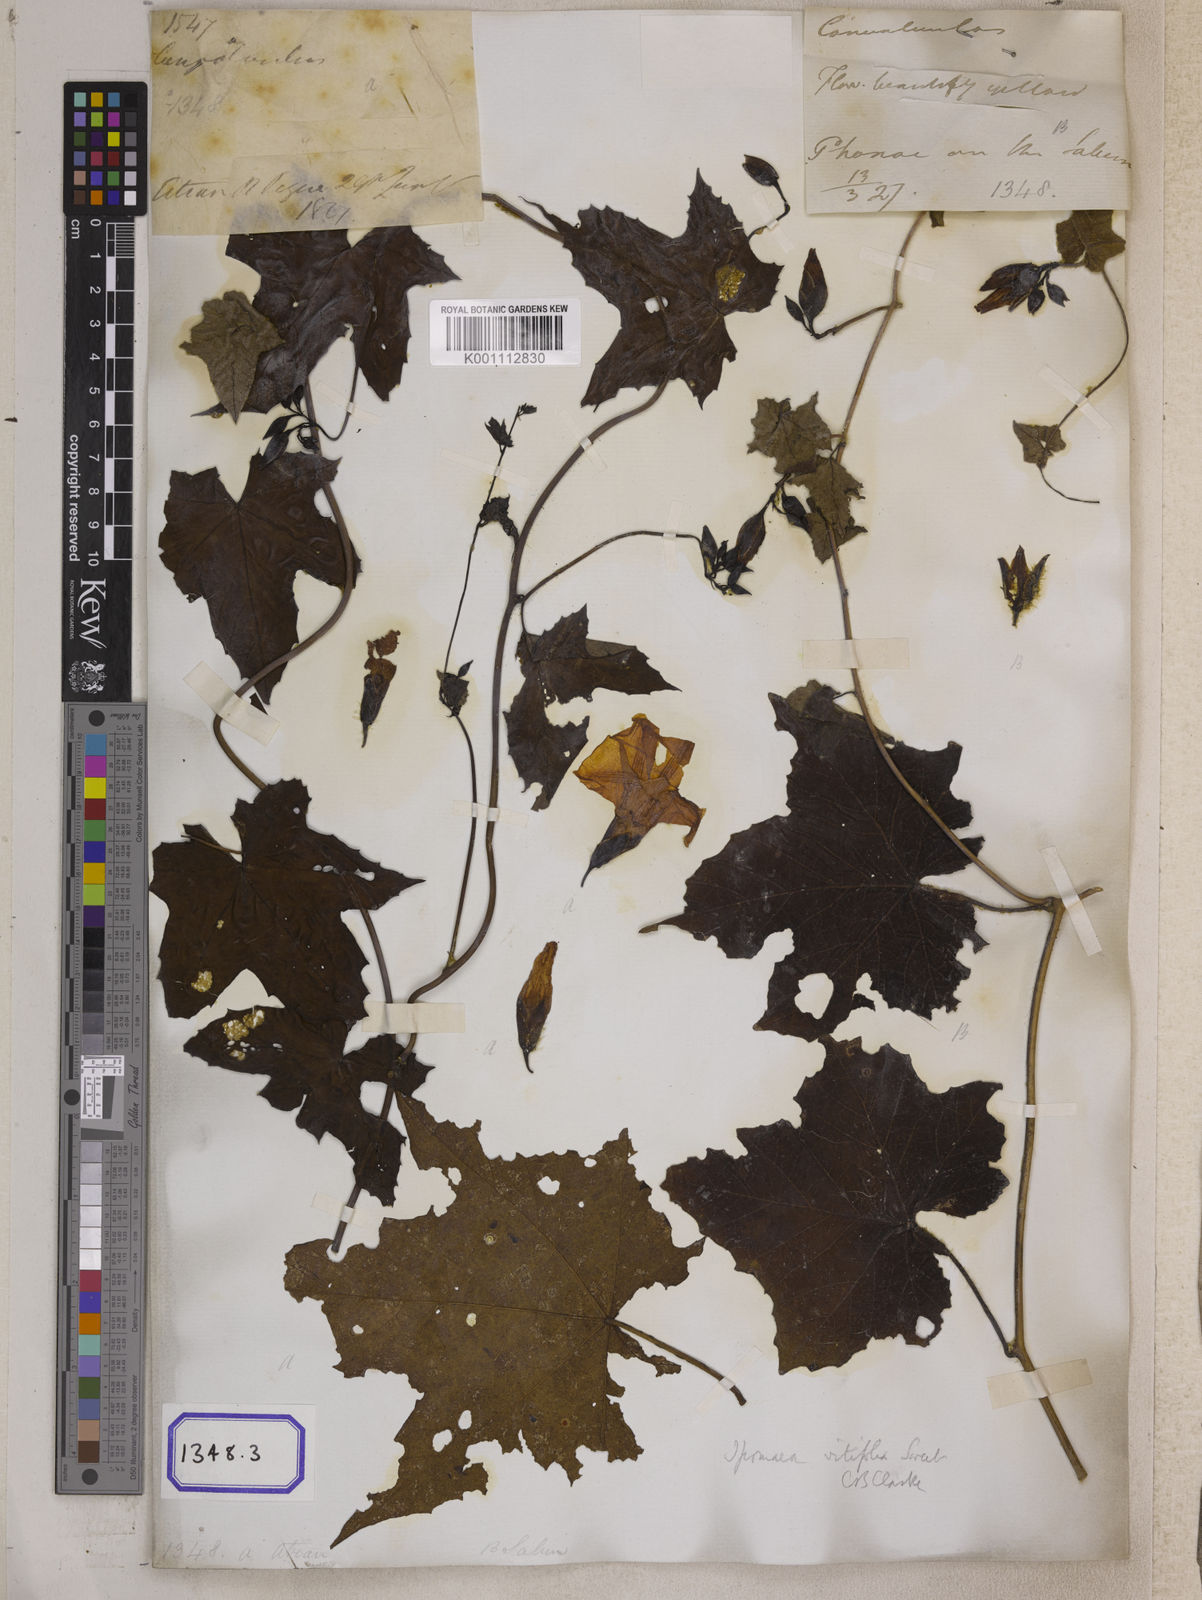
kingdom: Plantae
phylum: Tracheophyta
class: Magnoliopsida
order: Solanales
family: Convolvulaceae
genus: Convolvulus
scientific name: Convolvulus
